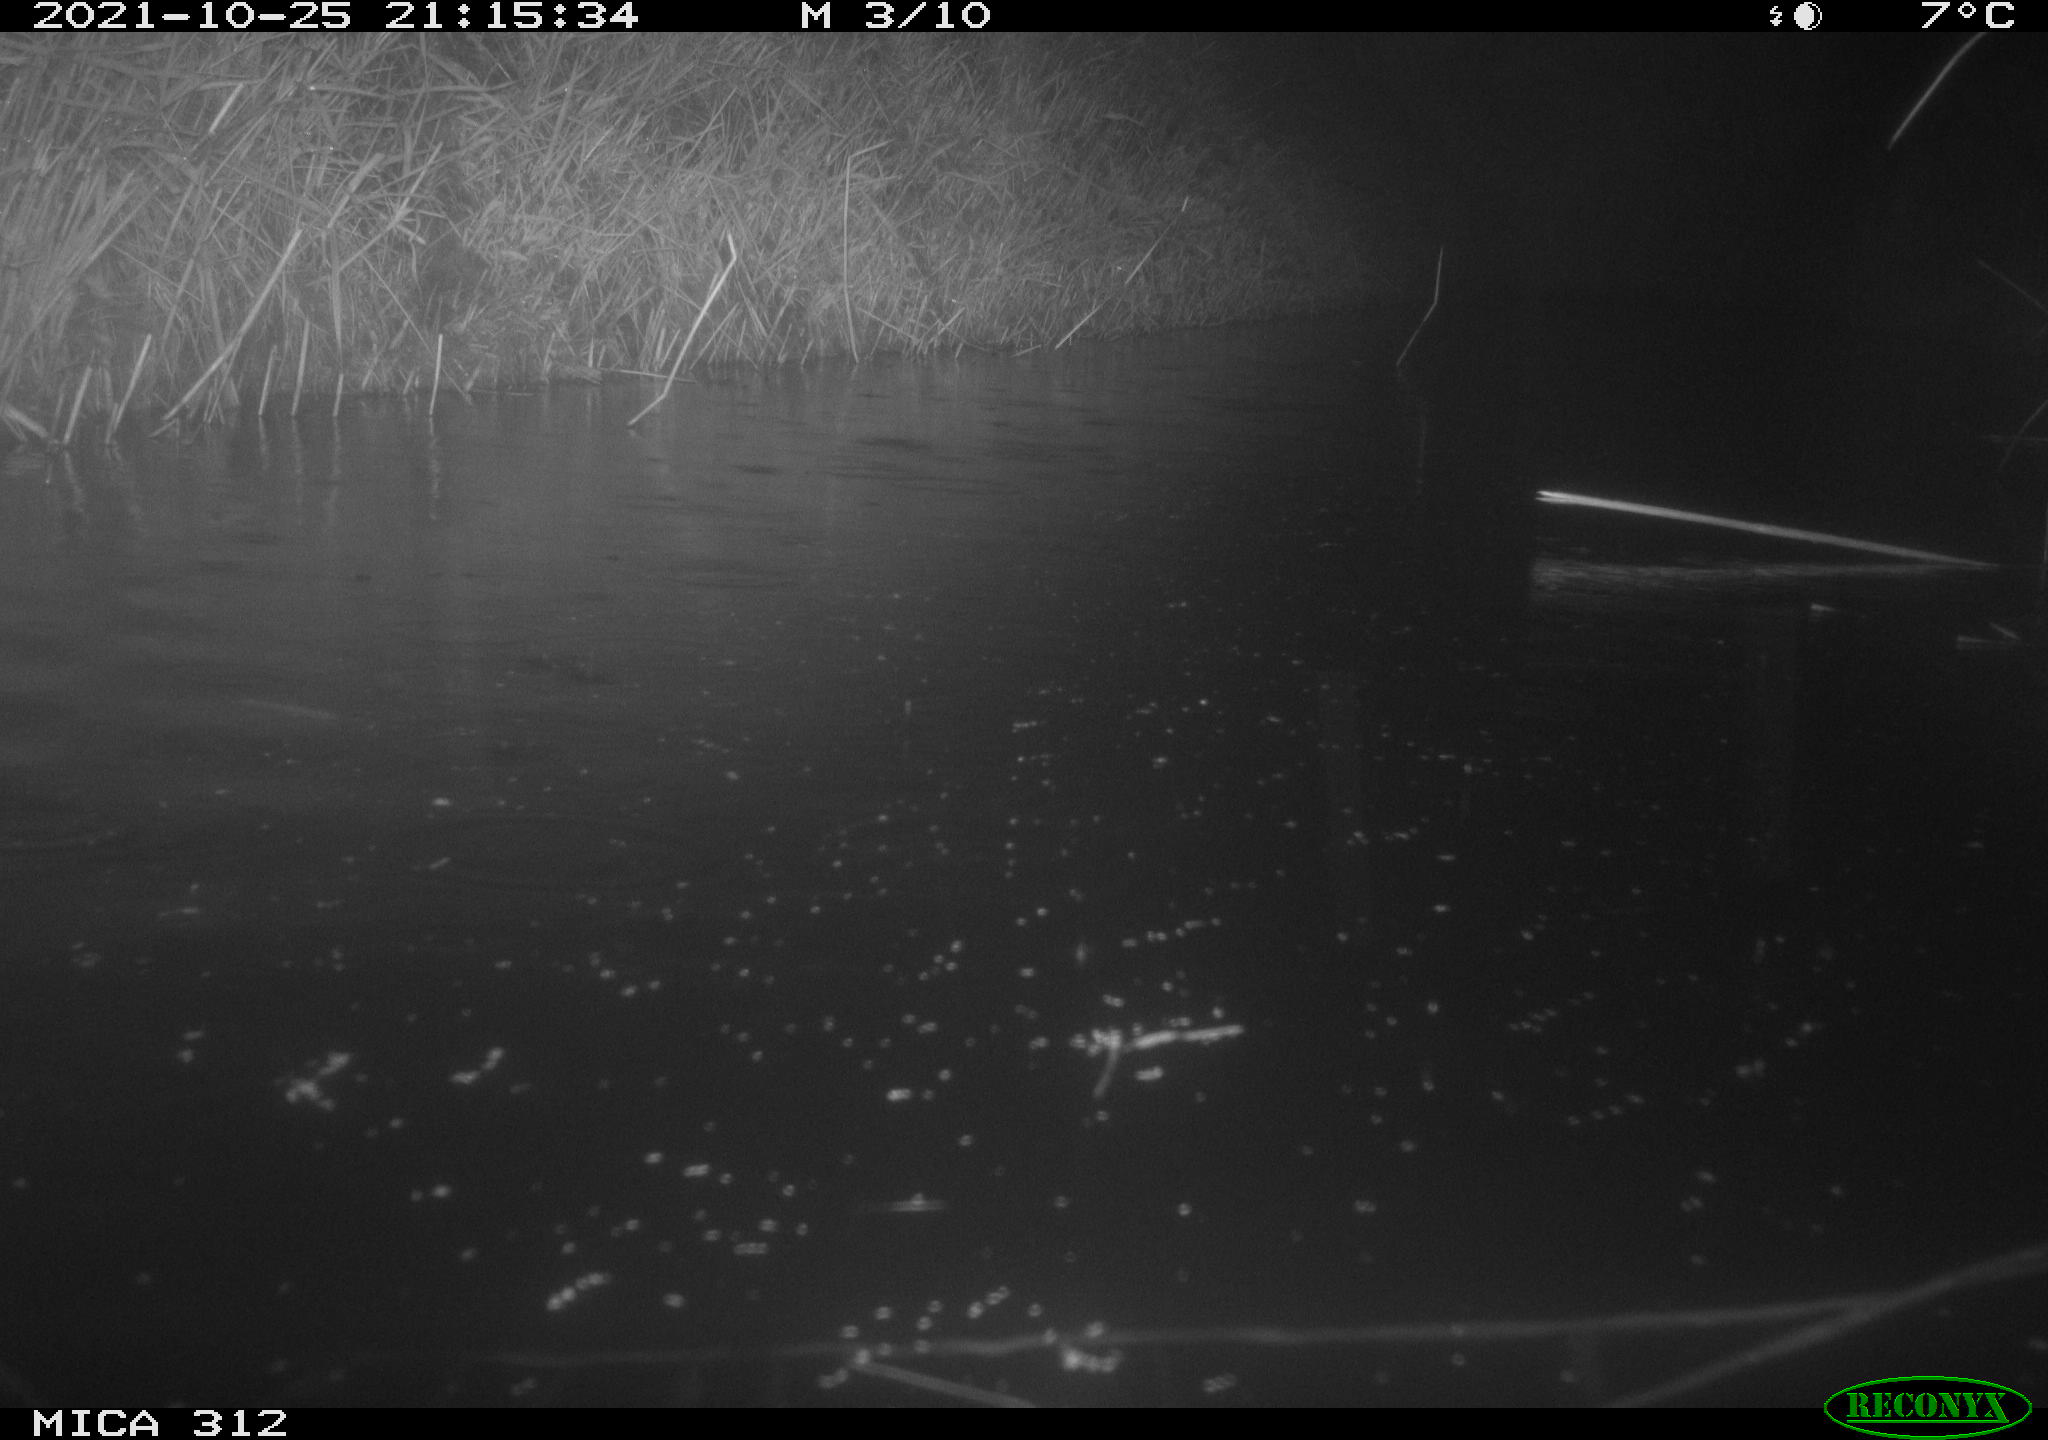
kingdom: Animalia
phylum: Chordata
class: Mammalia
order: Rodentia
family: Cricetidae
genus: Ondatra
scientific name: Ondatra zibethicus
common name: Muskrat
